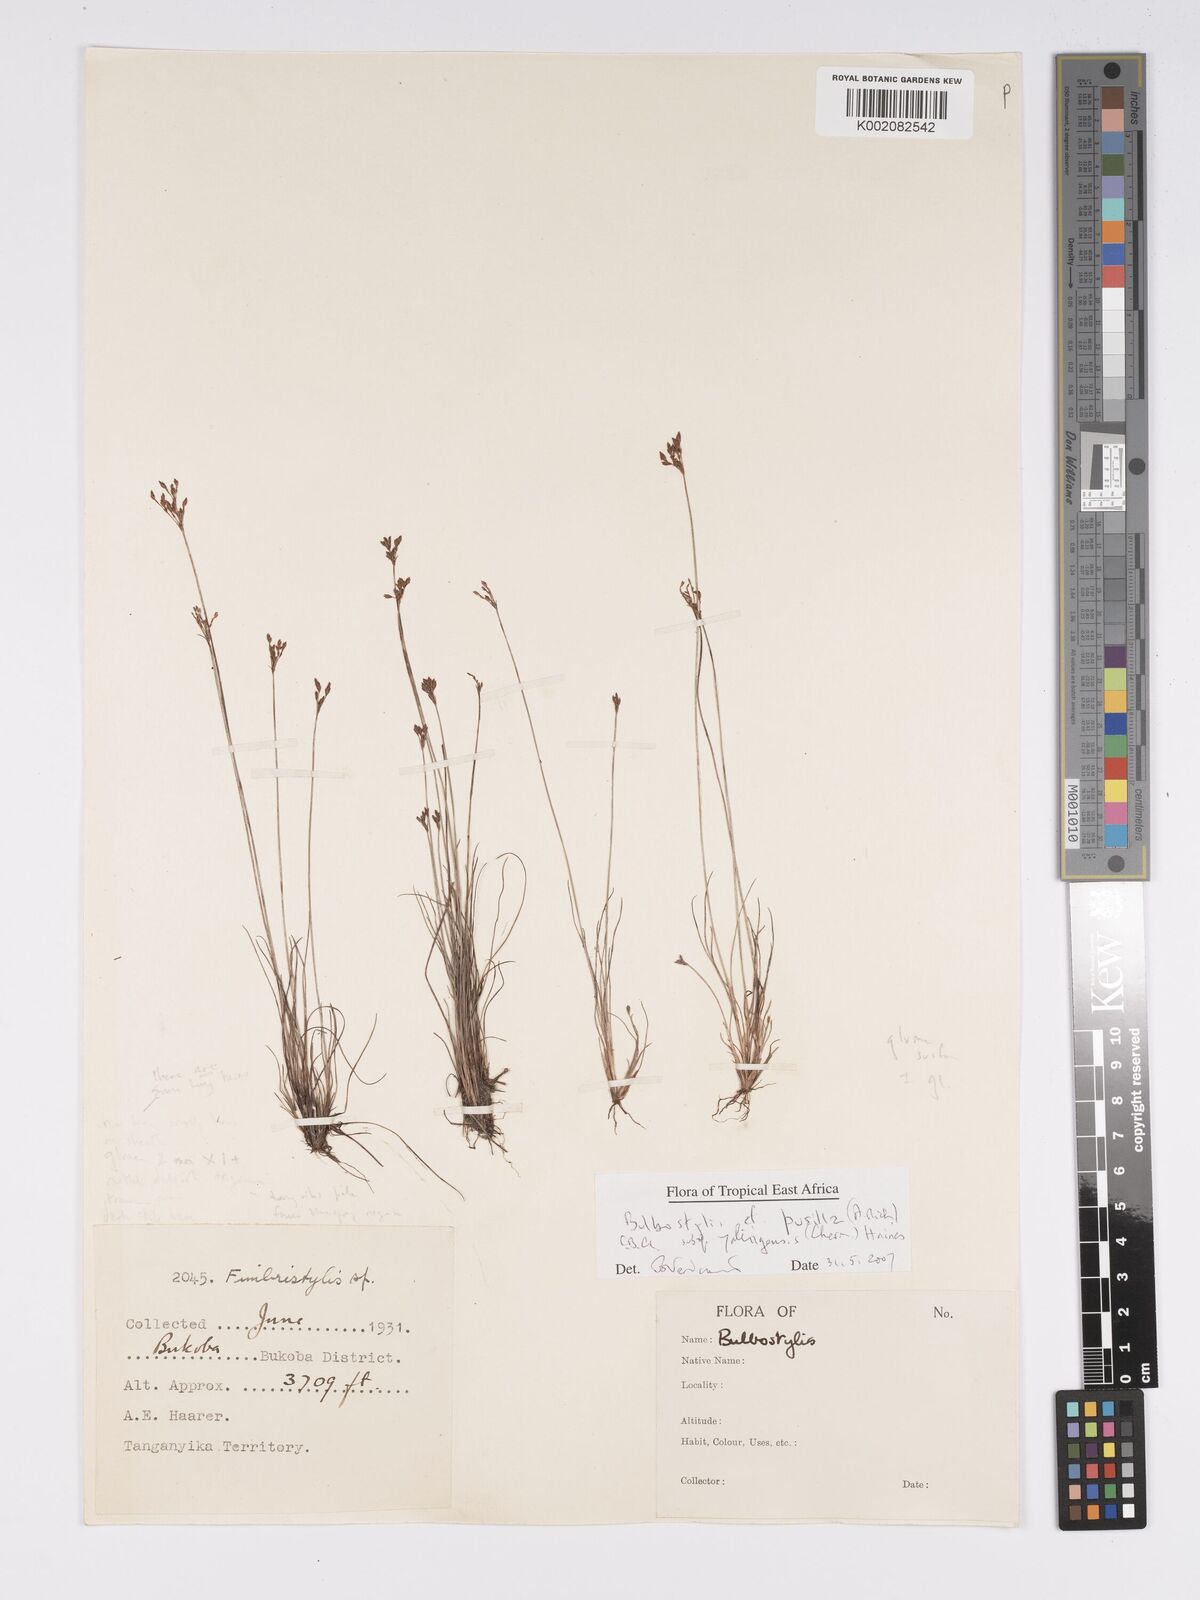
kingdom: Plantae
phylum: Tracheophyta
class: Liliopsida
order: Poales
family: Cyperaceae
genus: Bulbostylis
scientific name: Bulbostylis pusilla
